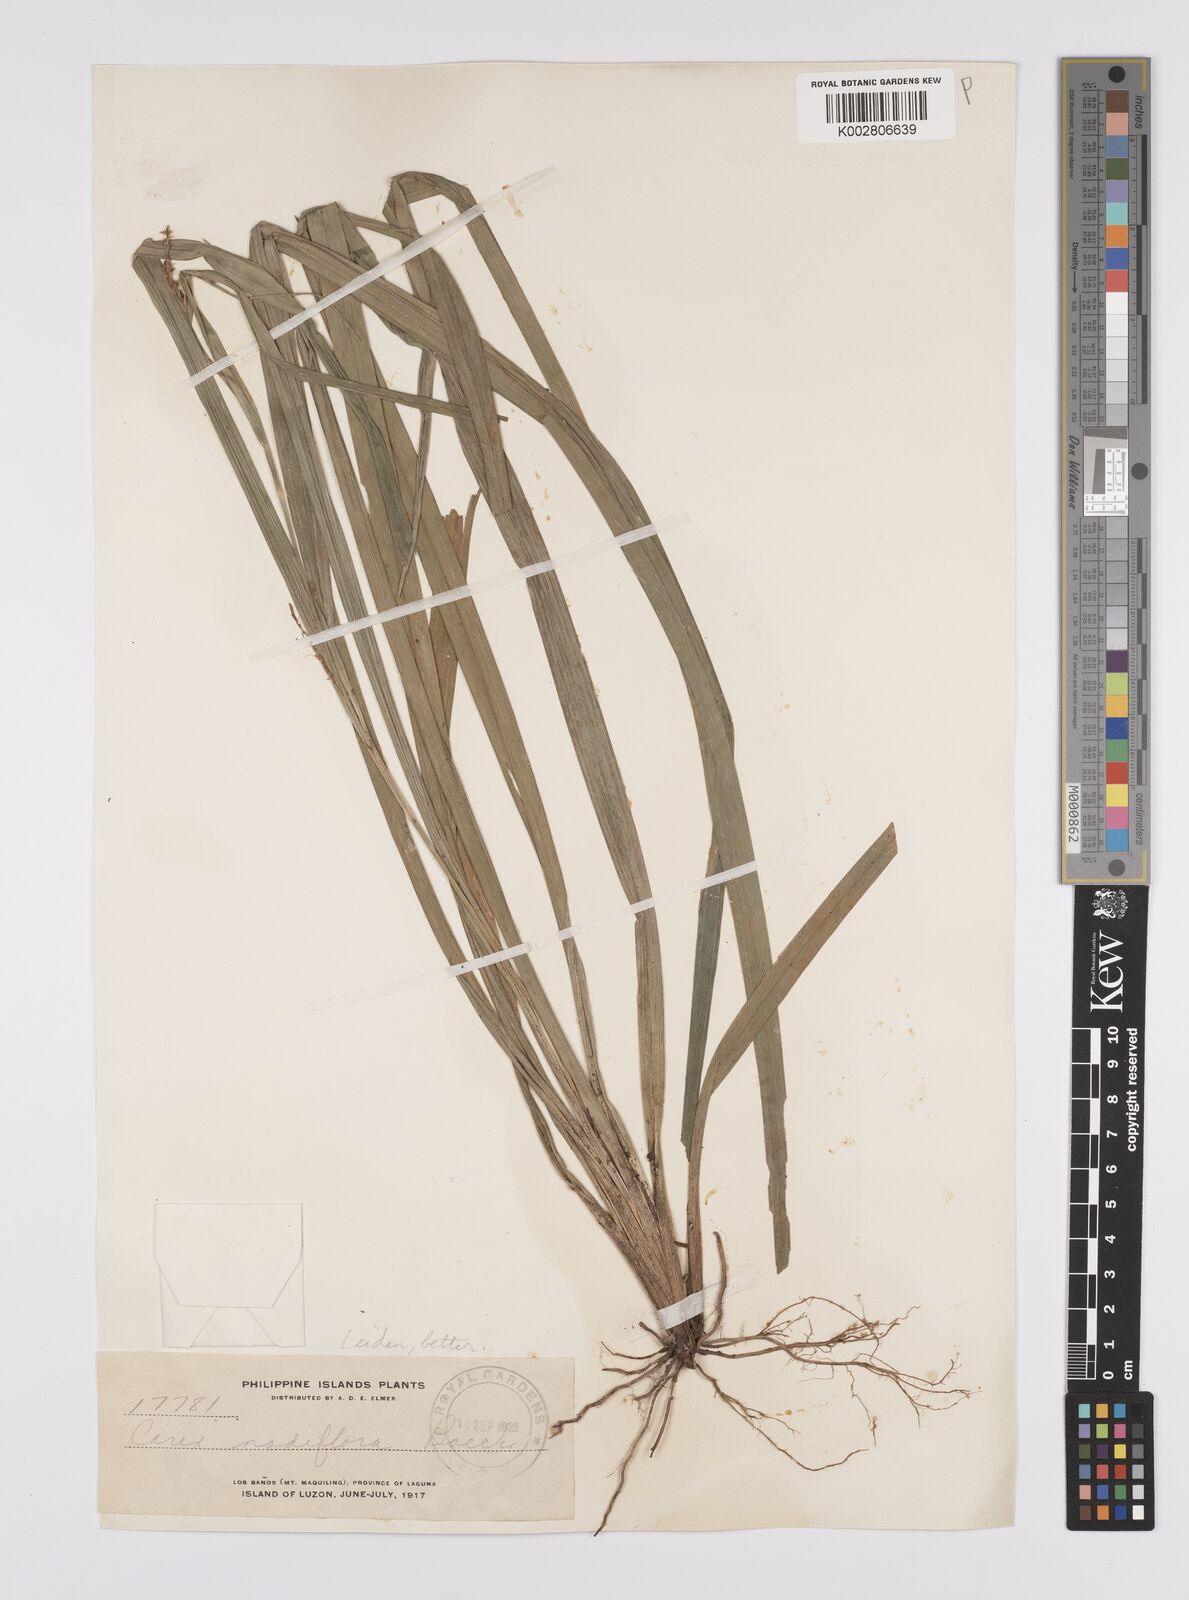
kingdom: Plantae
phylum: Tracheophyta
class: Liliopsida
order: Poales
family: Cyperaceae
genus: Carex
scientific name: Carex nodiflora
